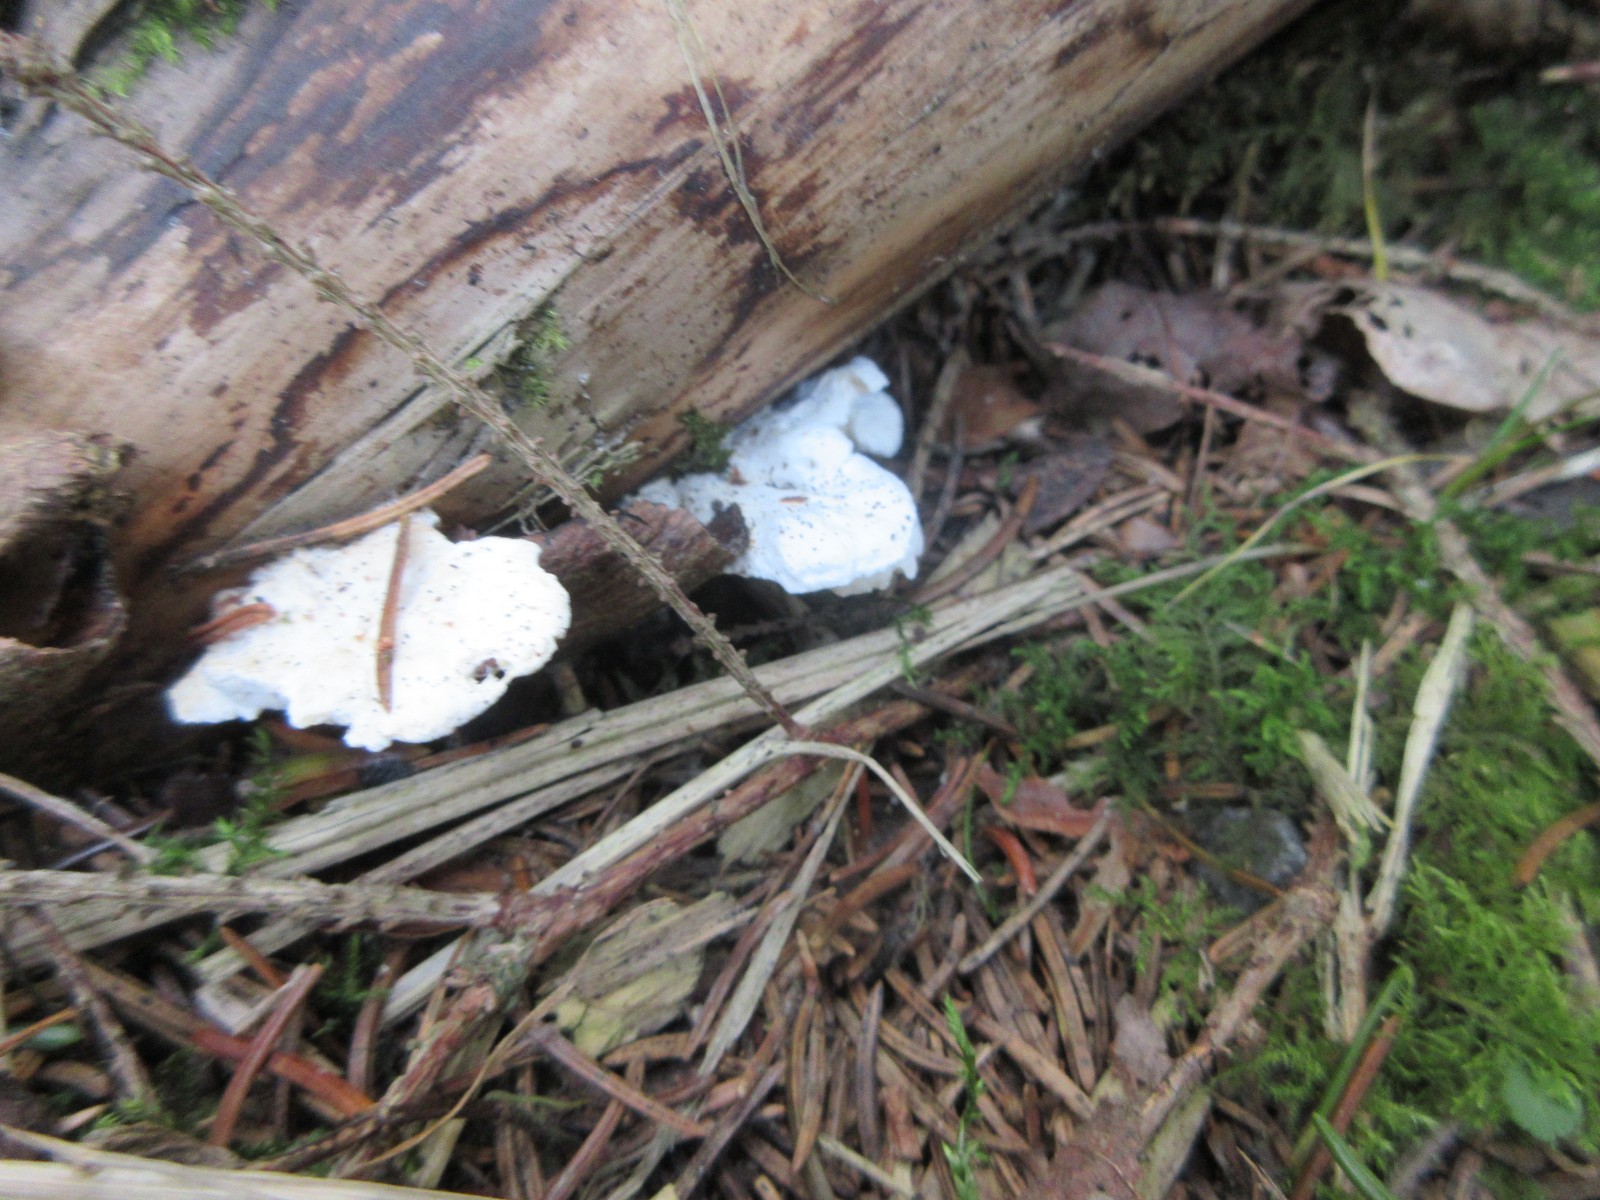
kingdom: Fungi
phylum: Basidiomycota
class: Agaricomycetes
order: Polyporales
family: Incrustoporiaceae
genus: Tyromyces
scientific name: Tyromyces lacteus
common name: mælkehvid kødporesvamp
